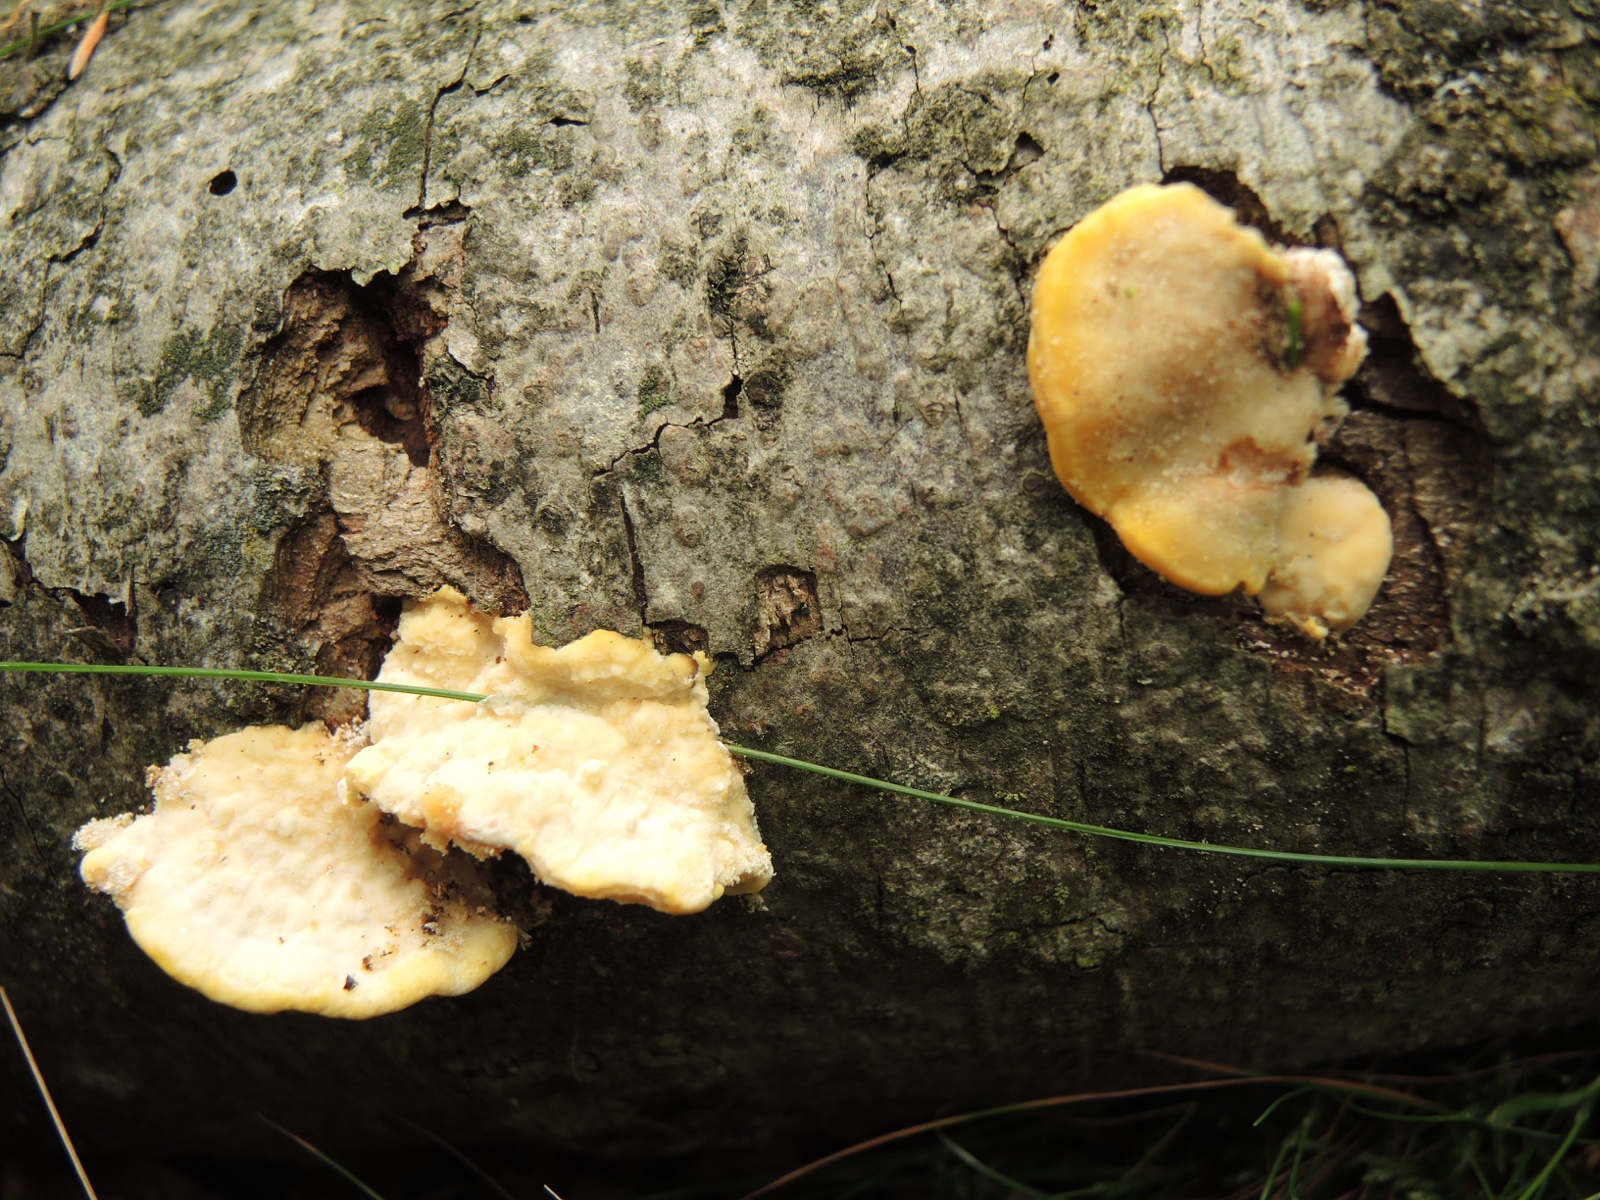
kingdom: Fungi
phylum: Basidiomycota
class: Agaricomycetes
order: Polyporales
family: Steccherinaceae
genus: Antrodiella
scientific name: Antrodiella serpula
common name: gulrandet elastikporesvamp
